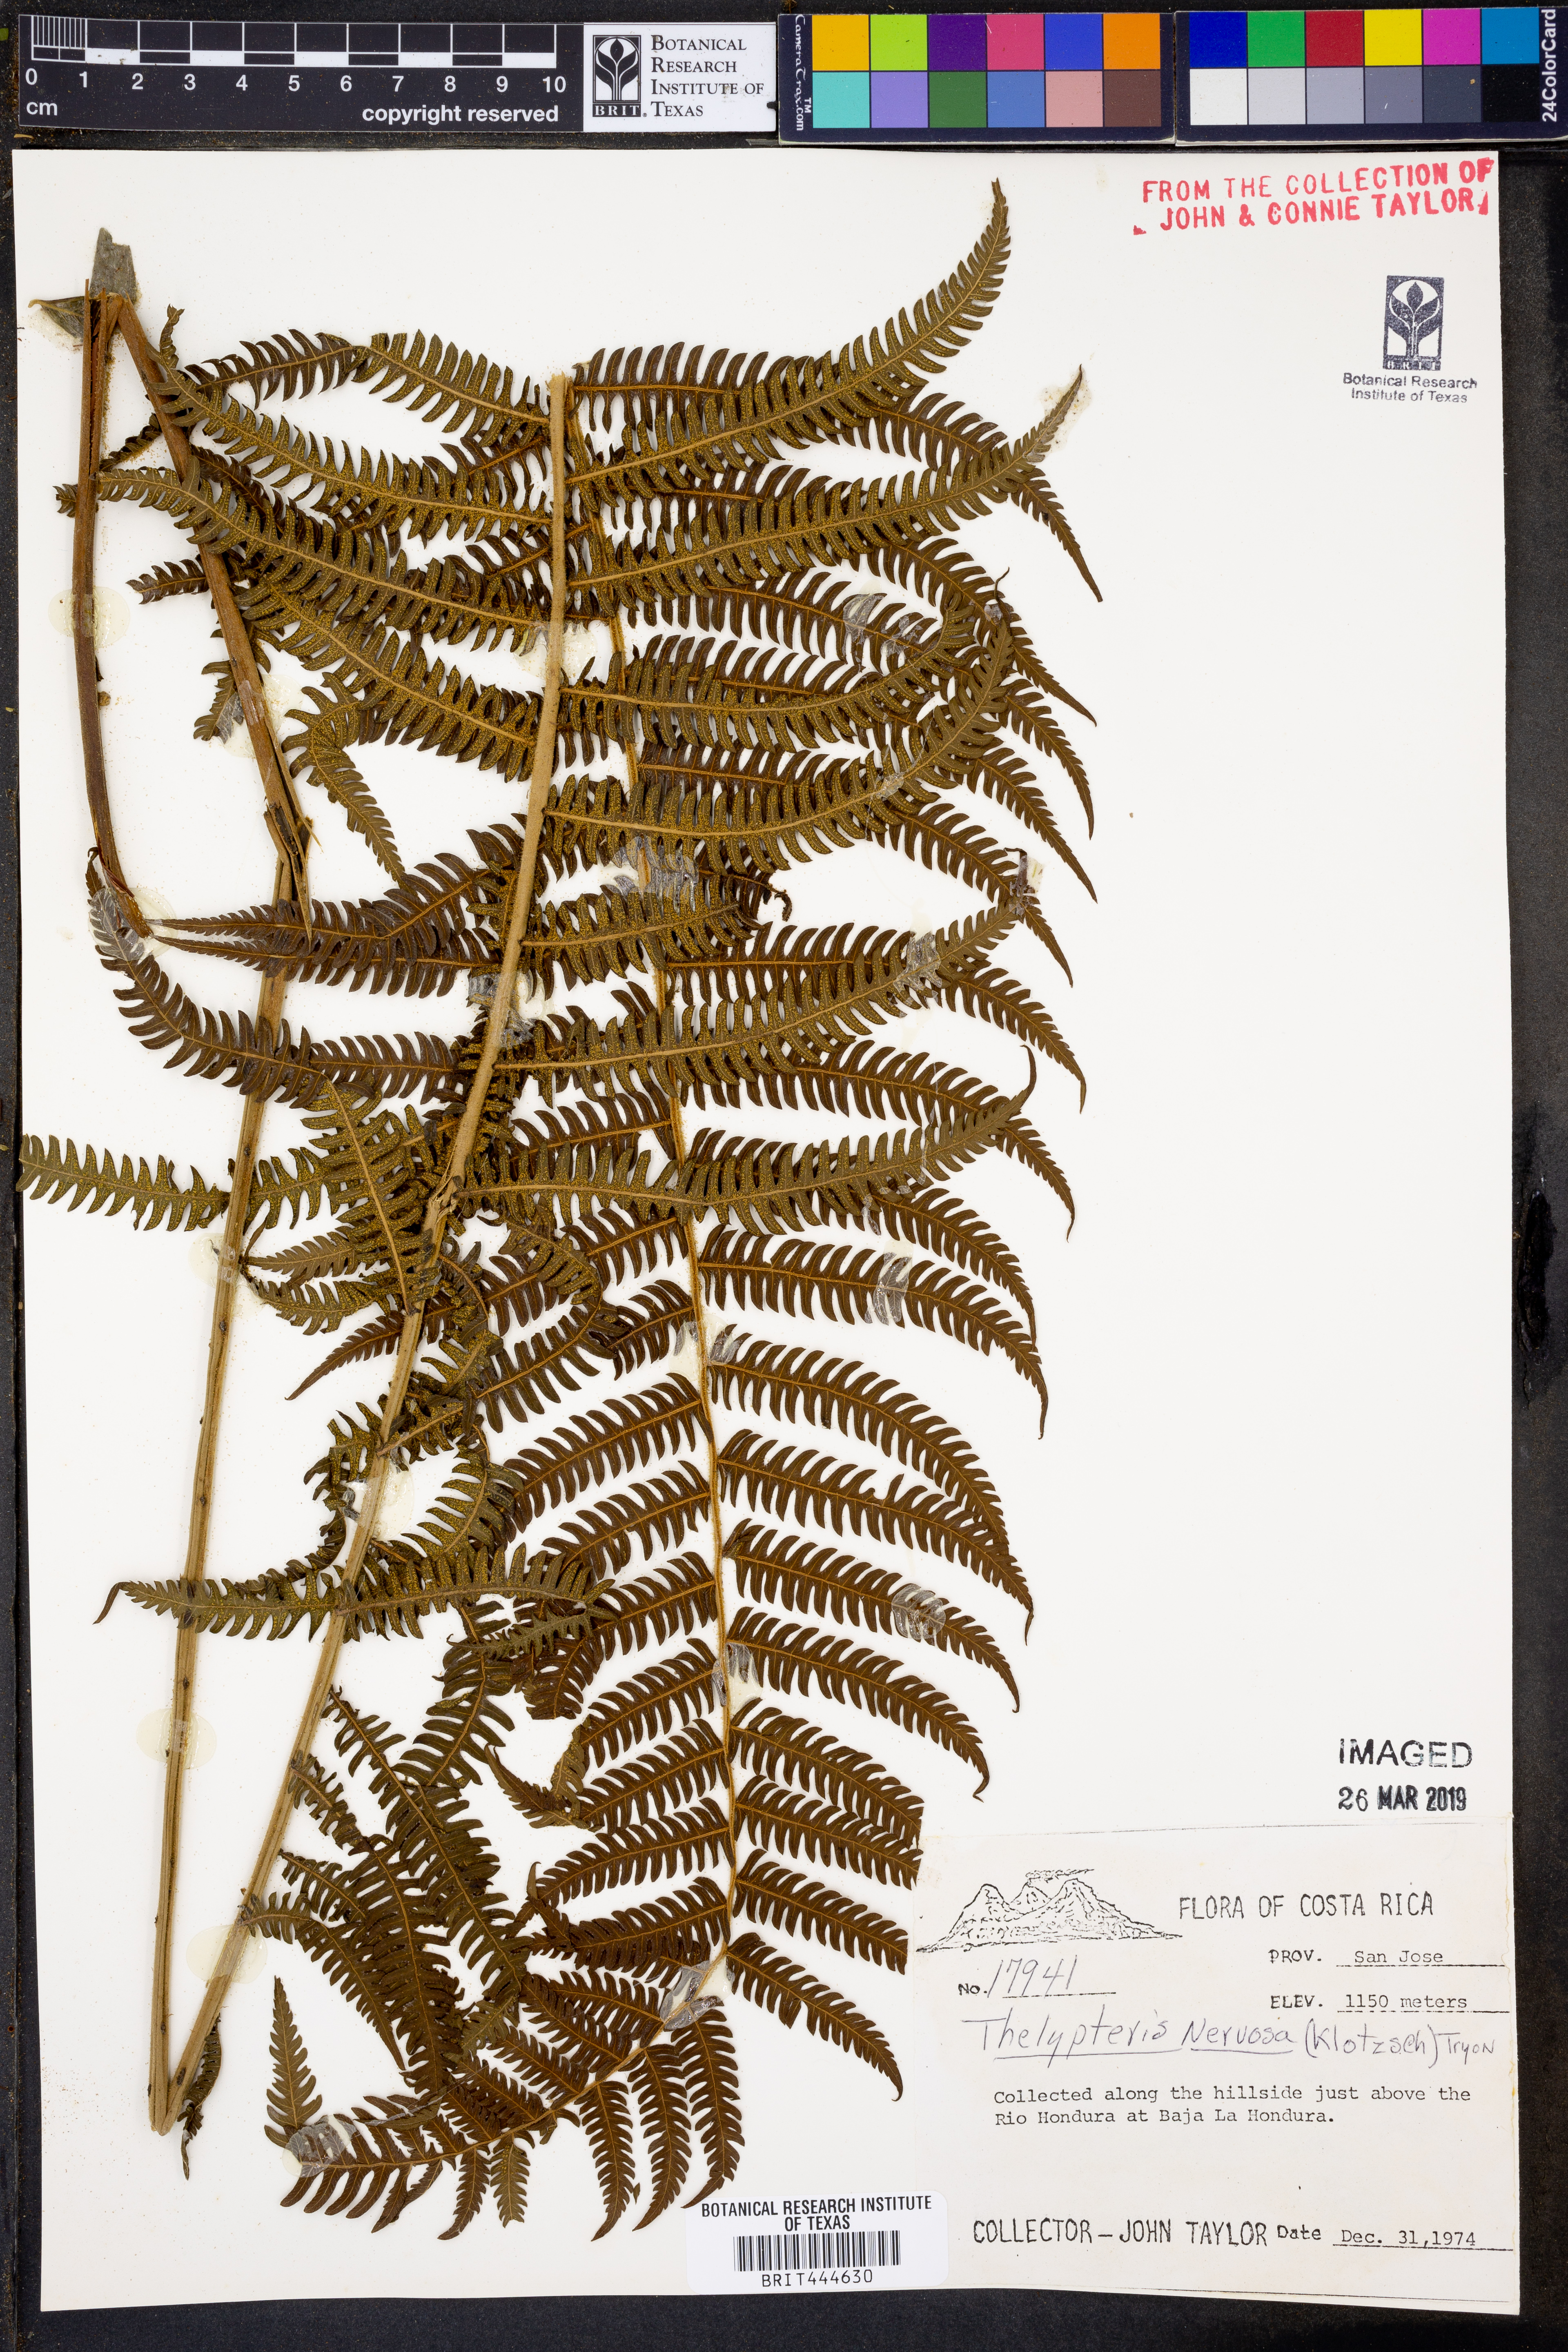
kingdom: Plantae
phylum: Tracheophyta
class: Polypodiopsida
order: Polypodiales
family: Thelypteridaceae
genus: Amauropelta
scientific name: Amauropelta rudis
